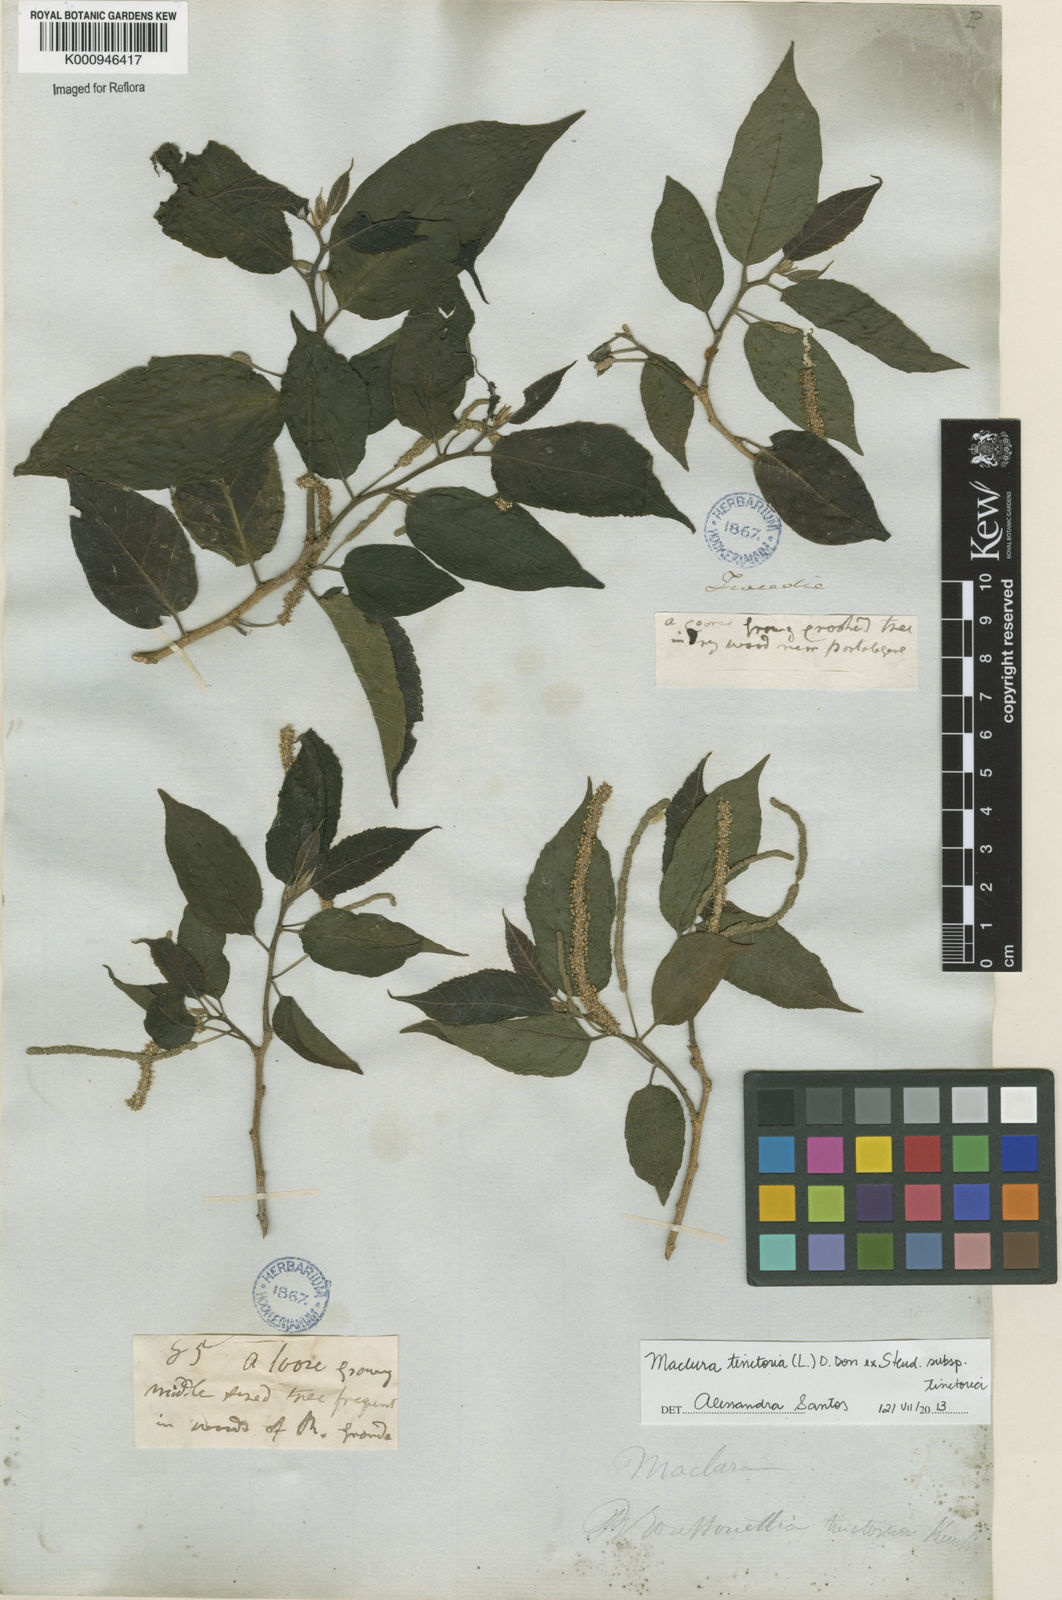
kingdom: Plantae
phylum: Tracheophyta
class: Magnoliopsida
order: Rosales
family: Moraceae
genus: Maclura
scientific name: Maclura
